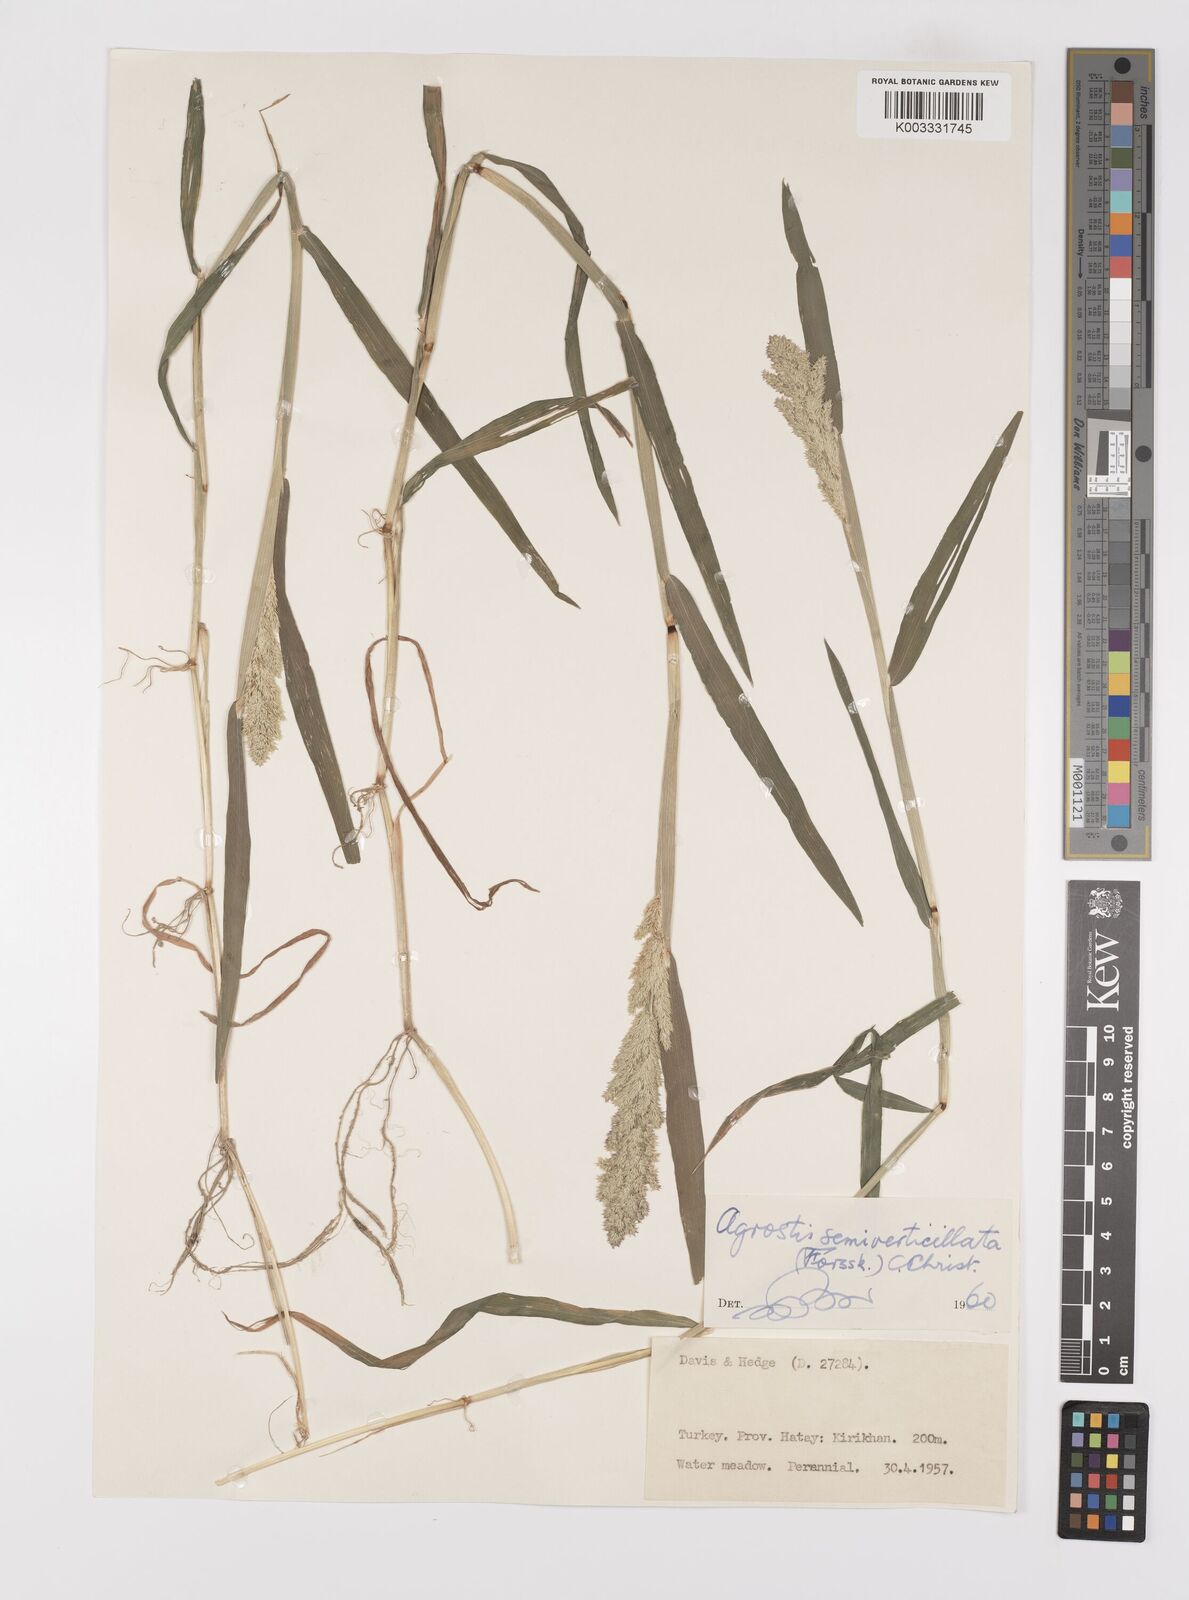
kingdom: Plantae
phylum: Tracheophyta
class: Liliopsida
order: Poales
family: Poaceae
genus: Polypogon
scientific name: Polypogon viridis
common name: Water bent
